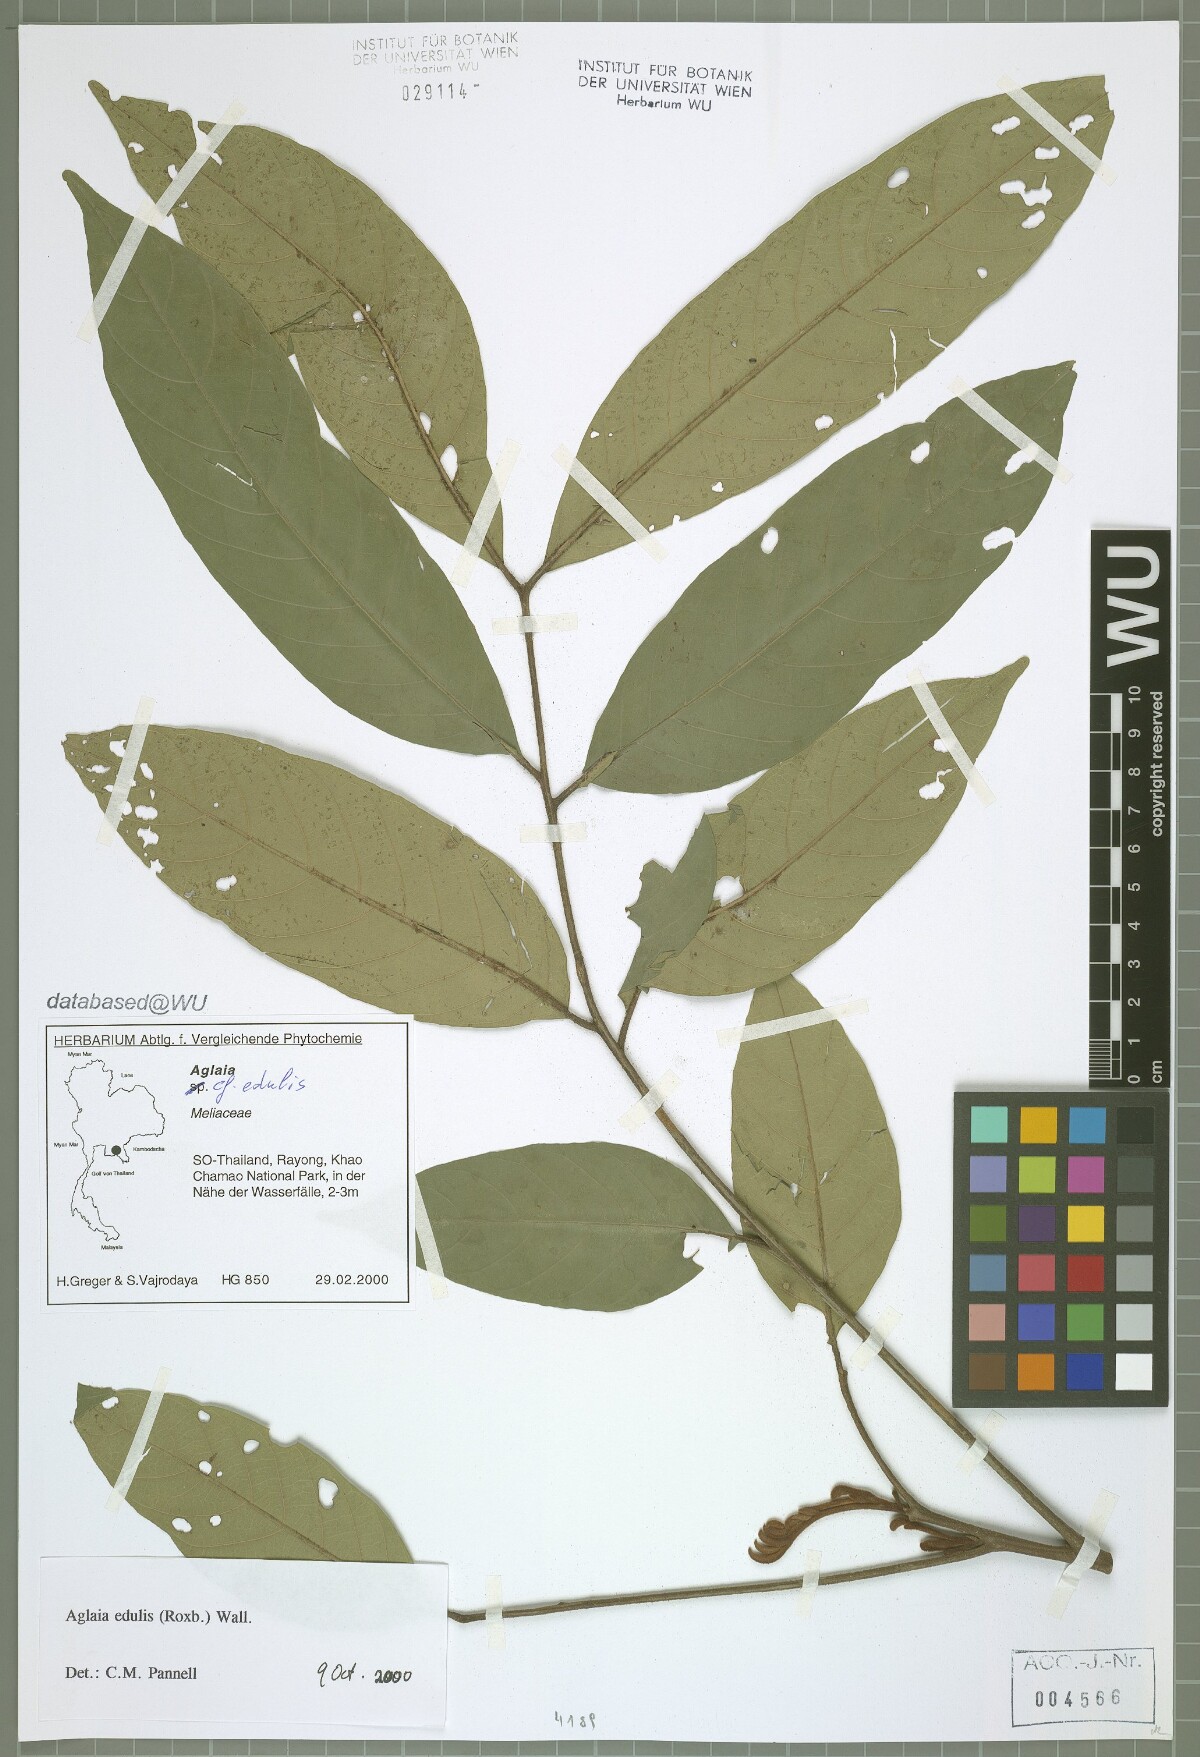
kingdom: Plantae
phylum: Tracheophyta
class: Magnoliopsida
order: Sapindales
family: Meliaceae
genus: Aglaia
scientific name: Aglaia edulis
